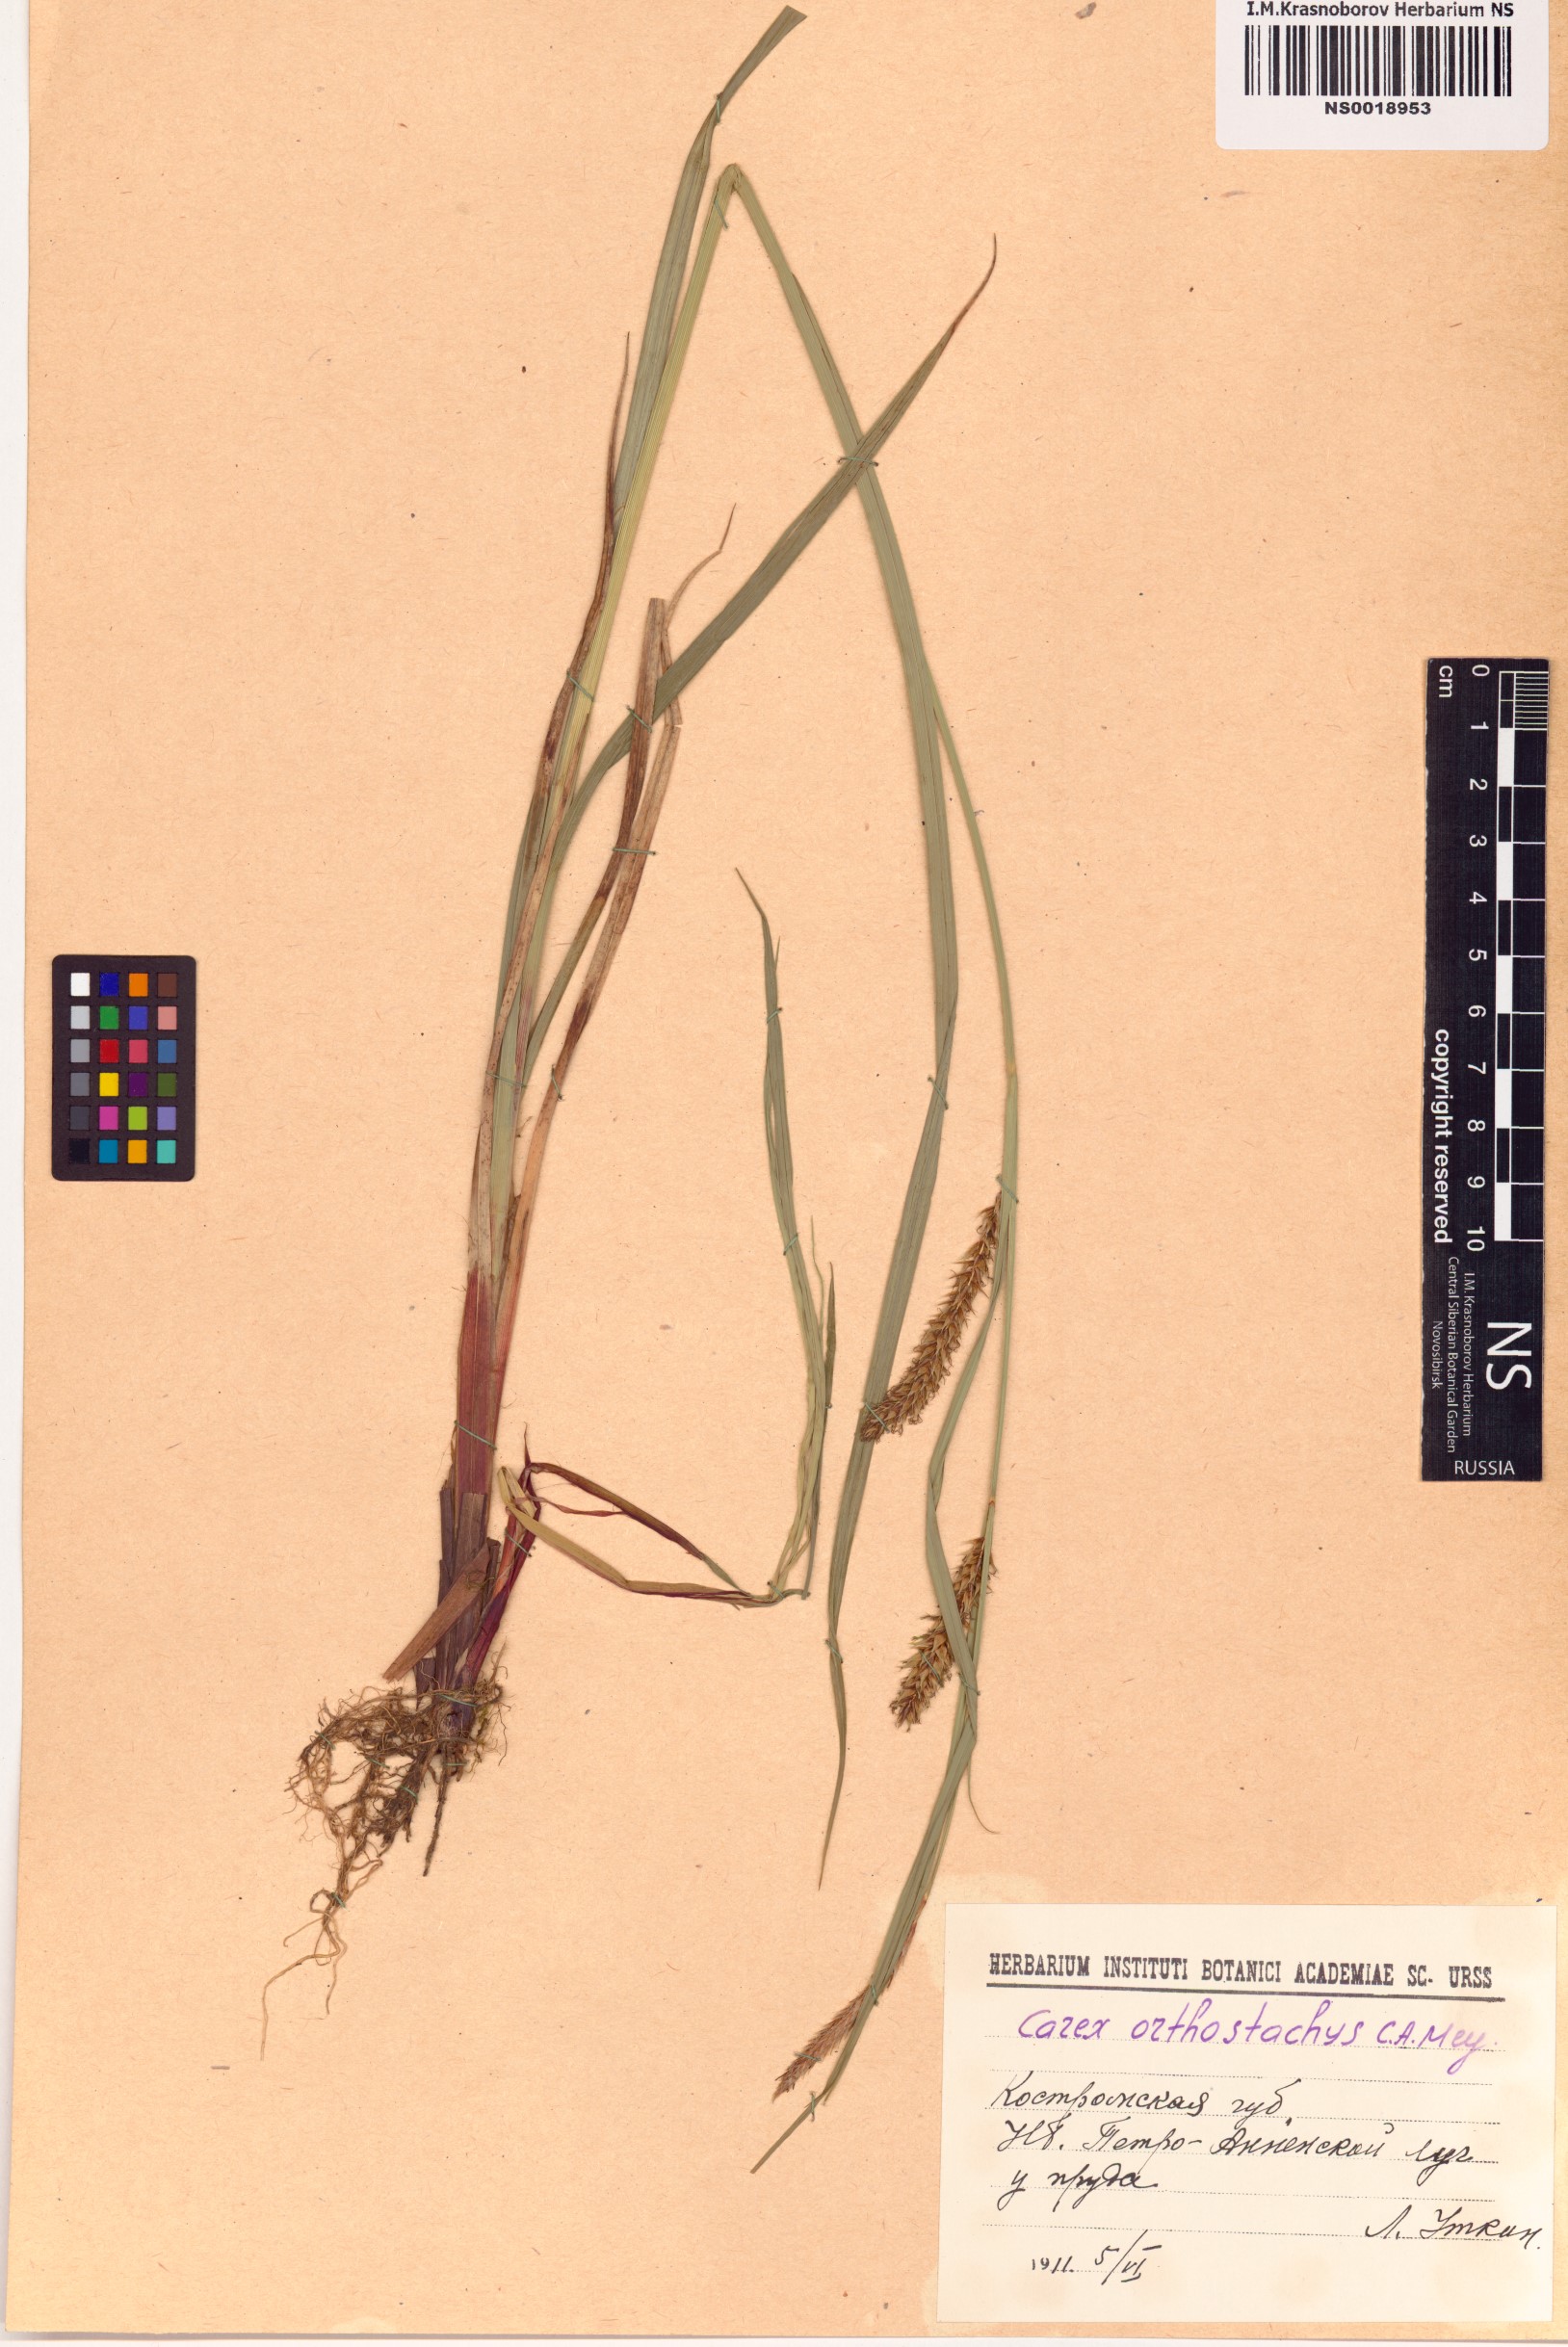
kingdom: Plantae
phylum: Tracheophyta
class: Liliopsida
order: Poales
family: Cyperaceae
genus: Carex
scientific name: Carex atherodes
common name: Wheat sedge
